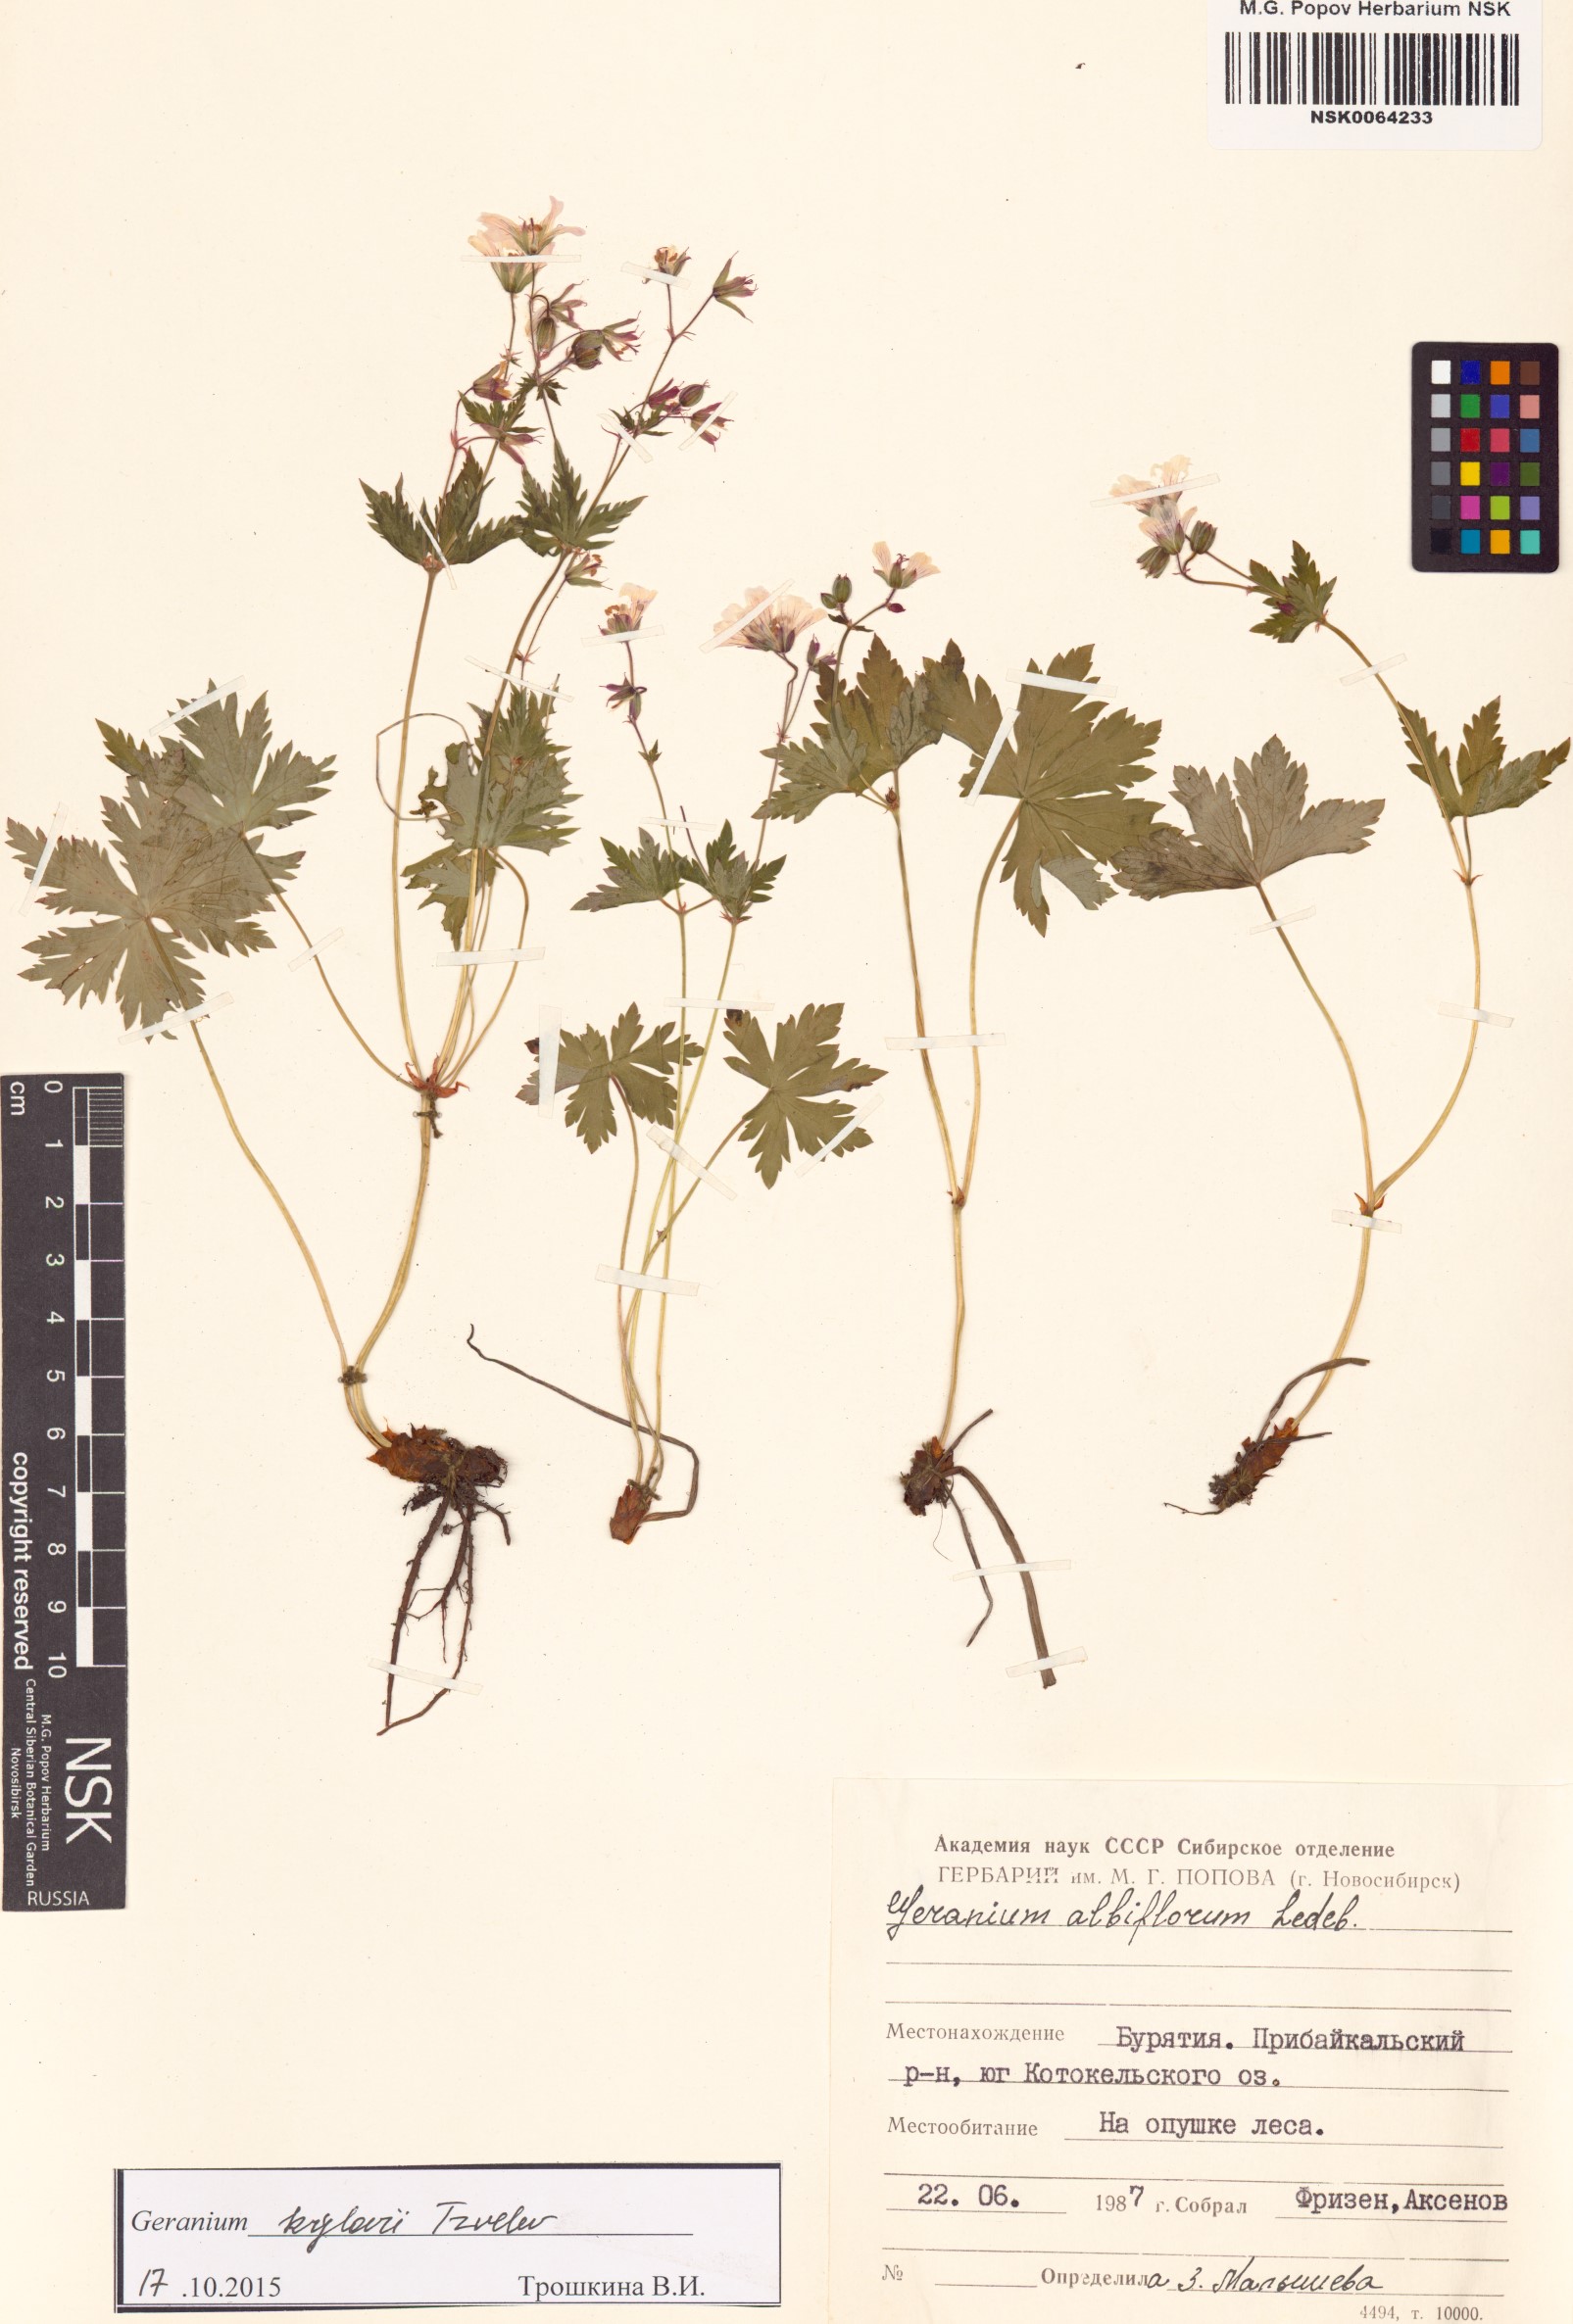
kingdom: Plantae
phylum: Tracheophyta
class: Magnoliopsida
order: Geraniales
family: Geraniaceae
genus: Geranium
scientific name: Geranium sylvaticum
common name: Wood crane's-bill
